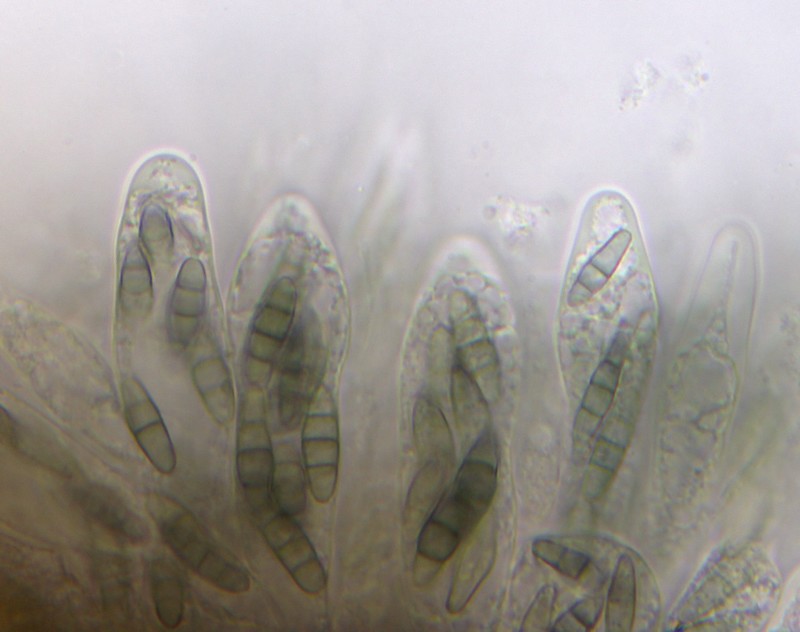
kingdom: Fungi
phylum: Ascomycota
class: Eurotiomycetes
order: Chaetothyriales
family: Herpotrichiellaceae
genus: Capronia
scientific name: Capronia pilosella
